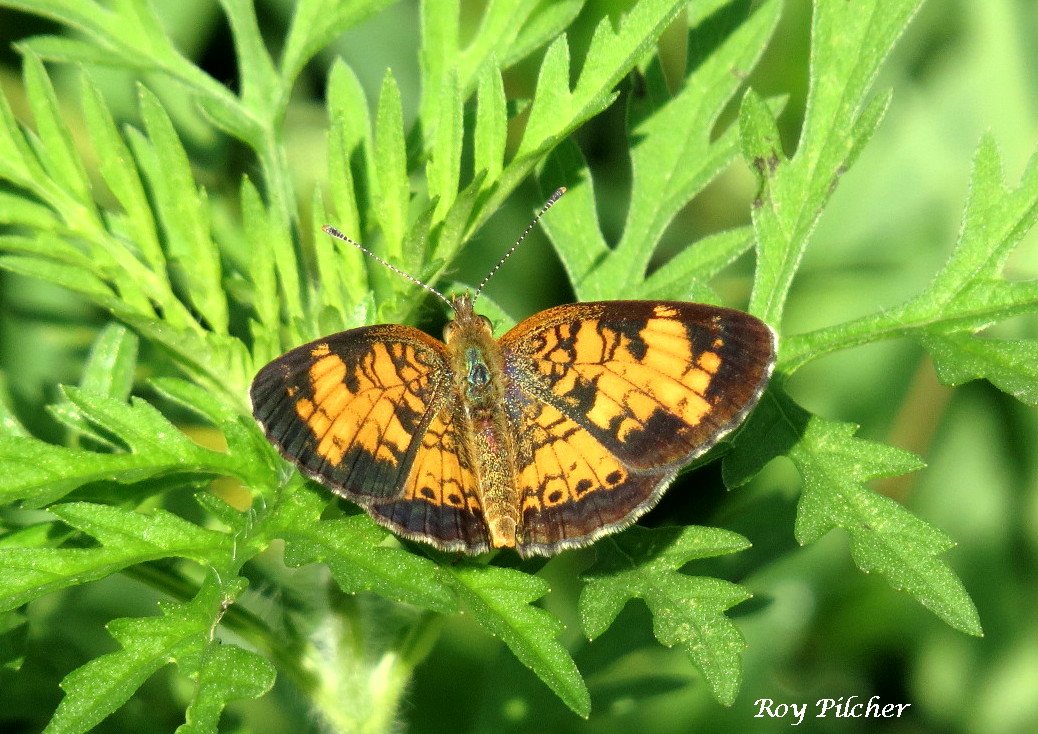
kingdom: Animalia
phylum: Arthropoda
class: Insecta
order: Lepidoptera
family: Nymphalidae
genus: Phyciodes
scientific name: Phyciodes tharos
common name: Northern Crescent
